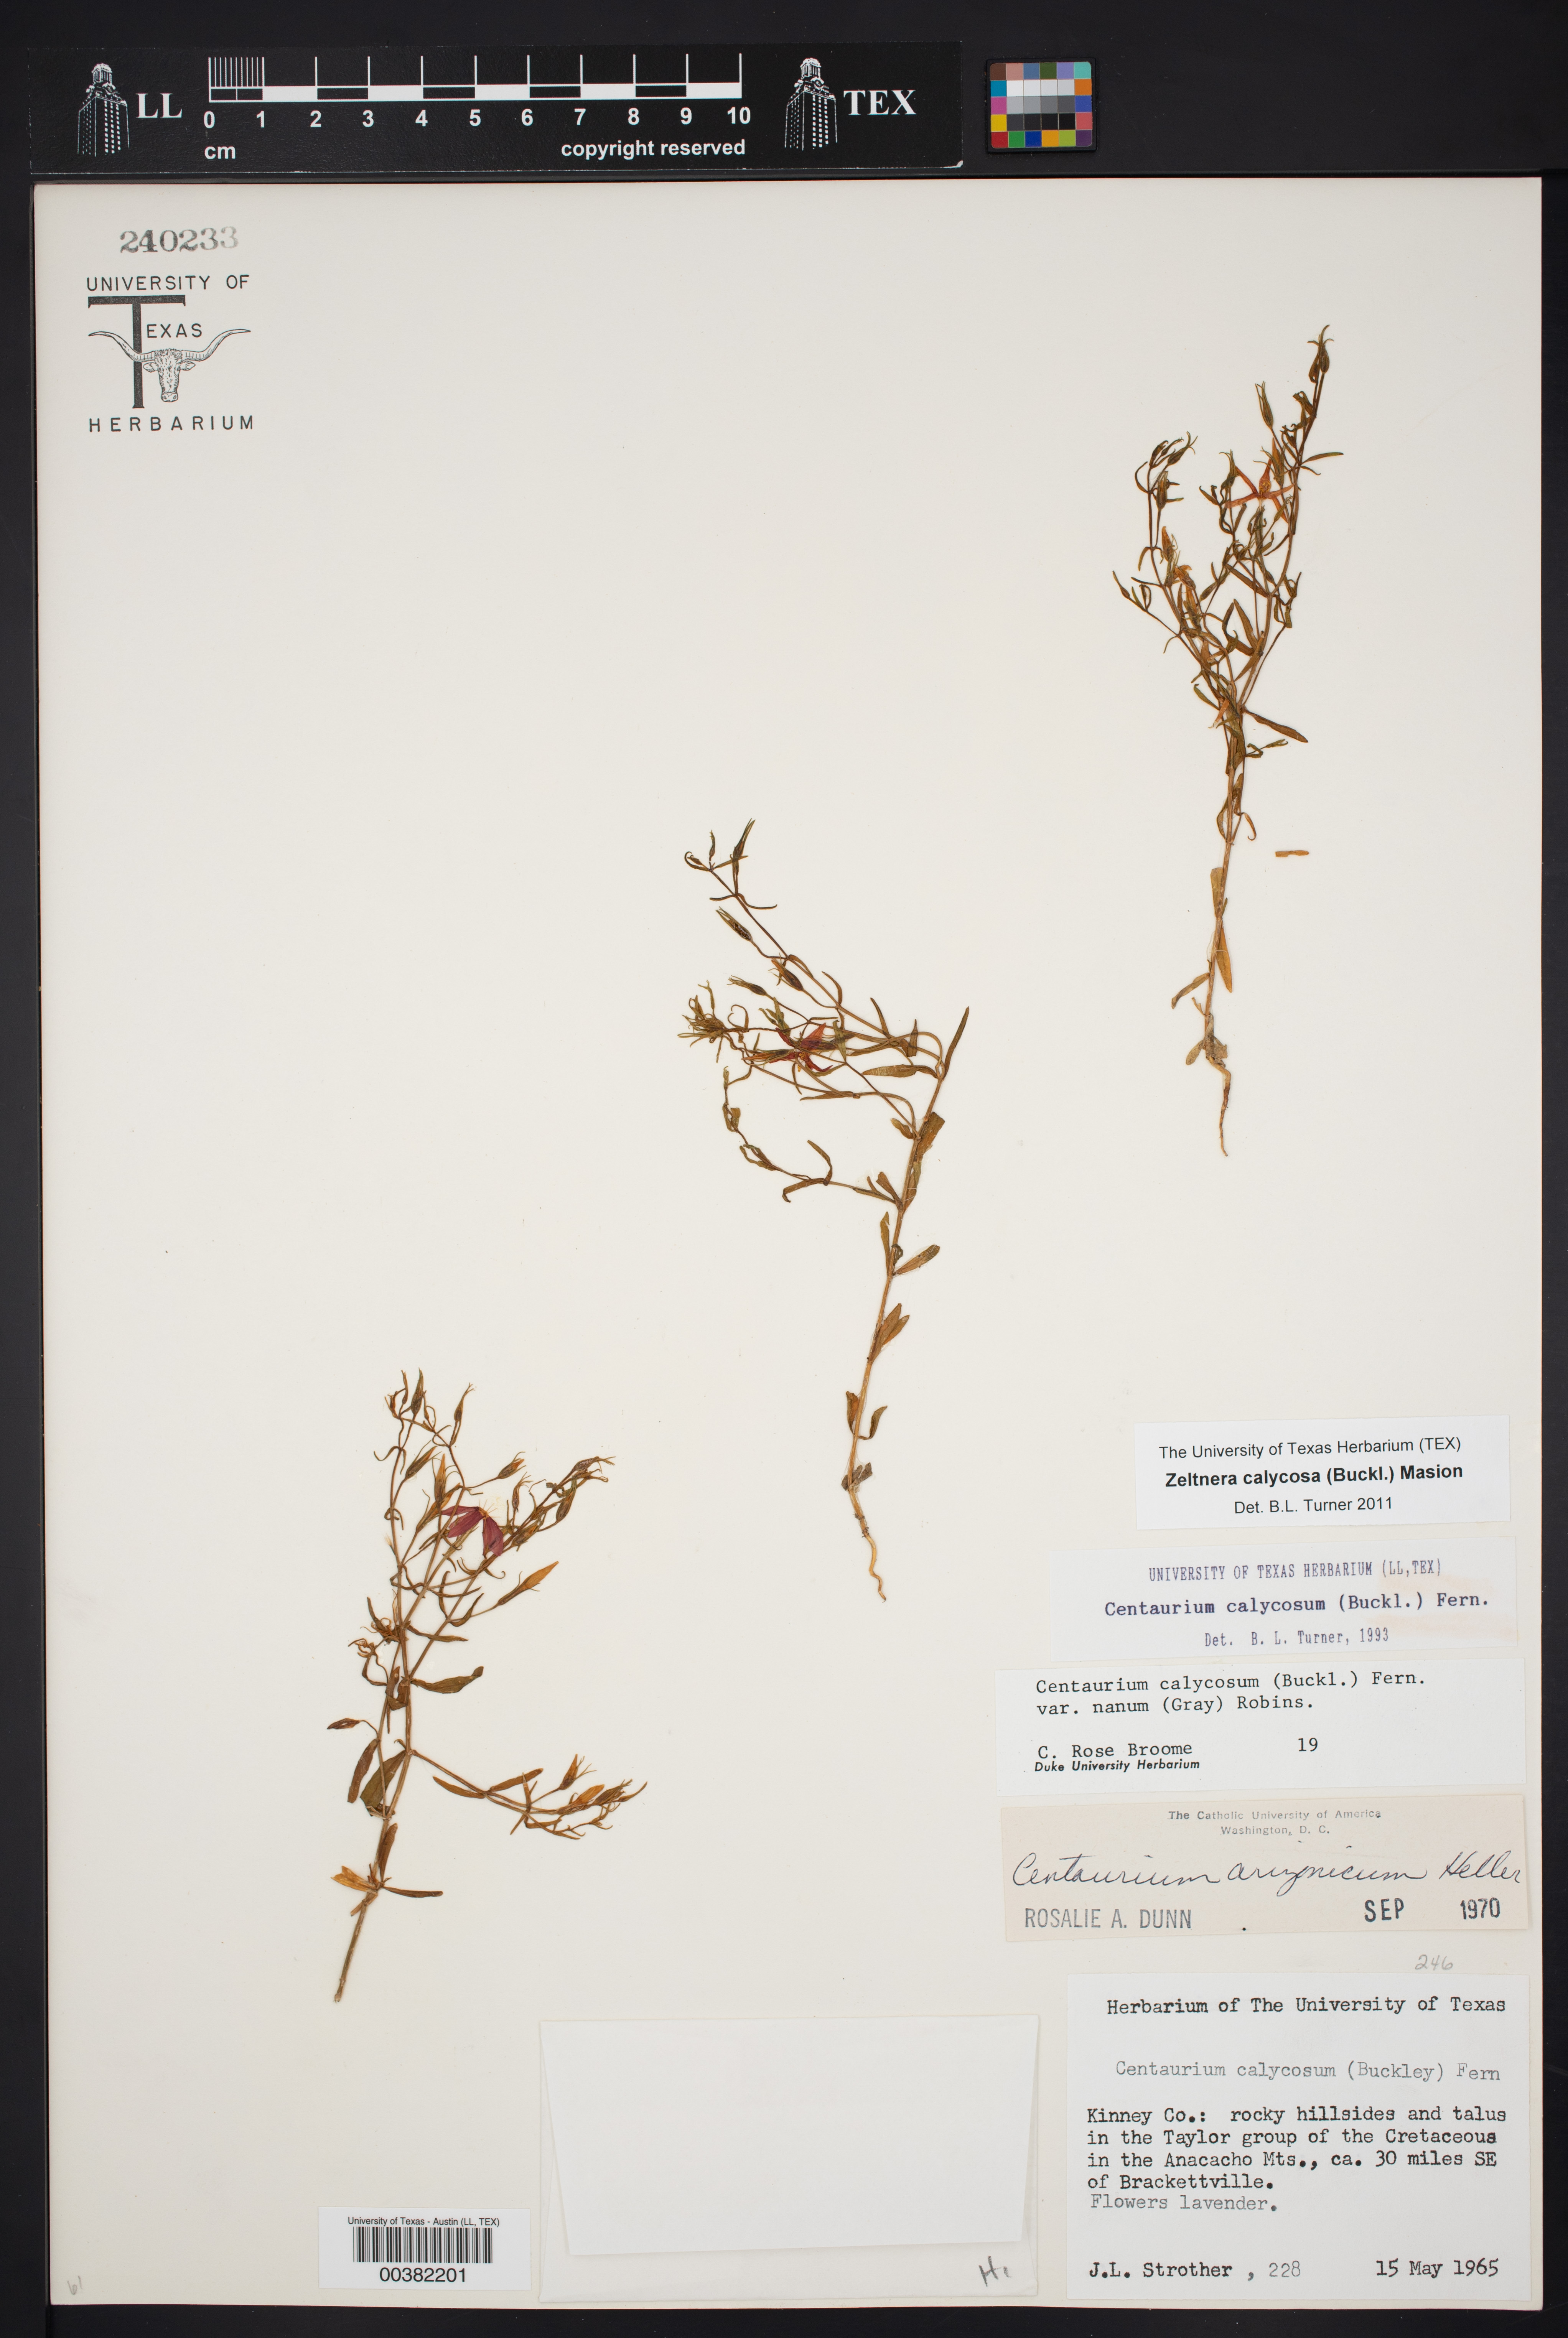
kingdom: Plantae
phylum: Tracheophyta
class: Magnoliopsida
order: Gentianales
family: Gentianaceae
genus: Zeltnera
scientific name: Zeltnera calycosa
